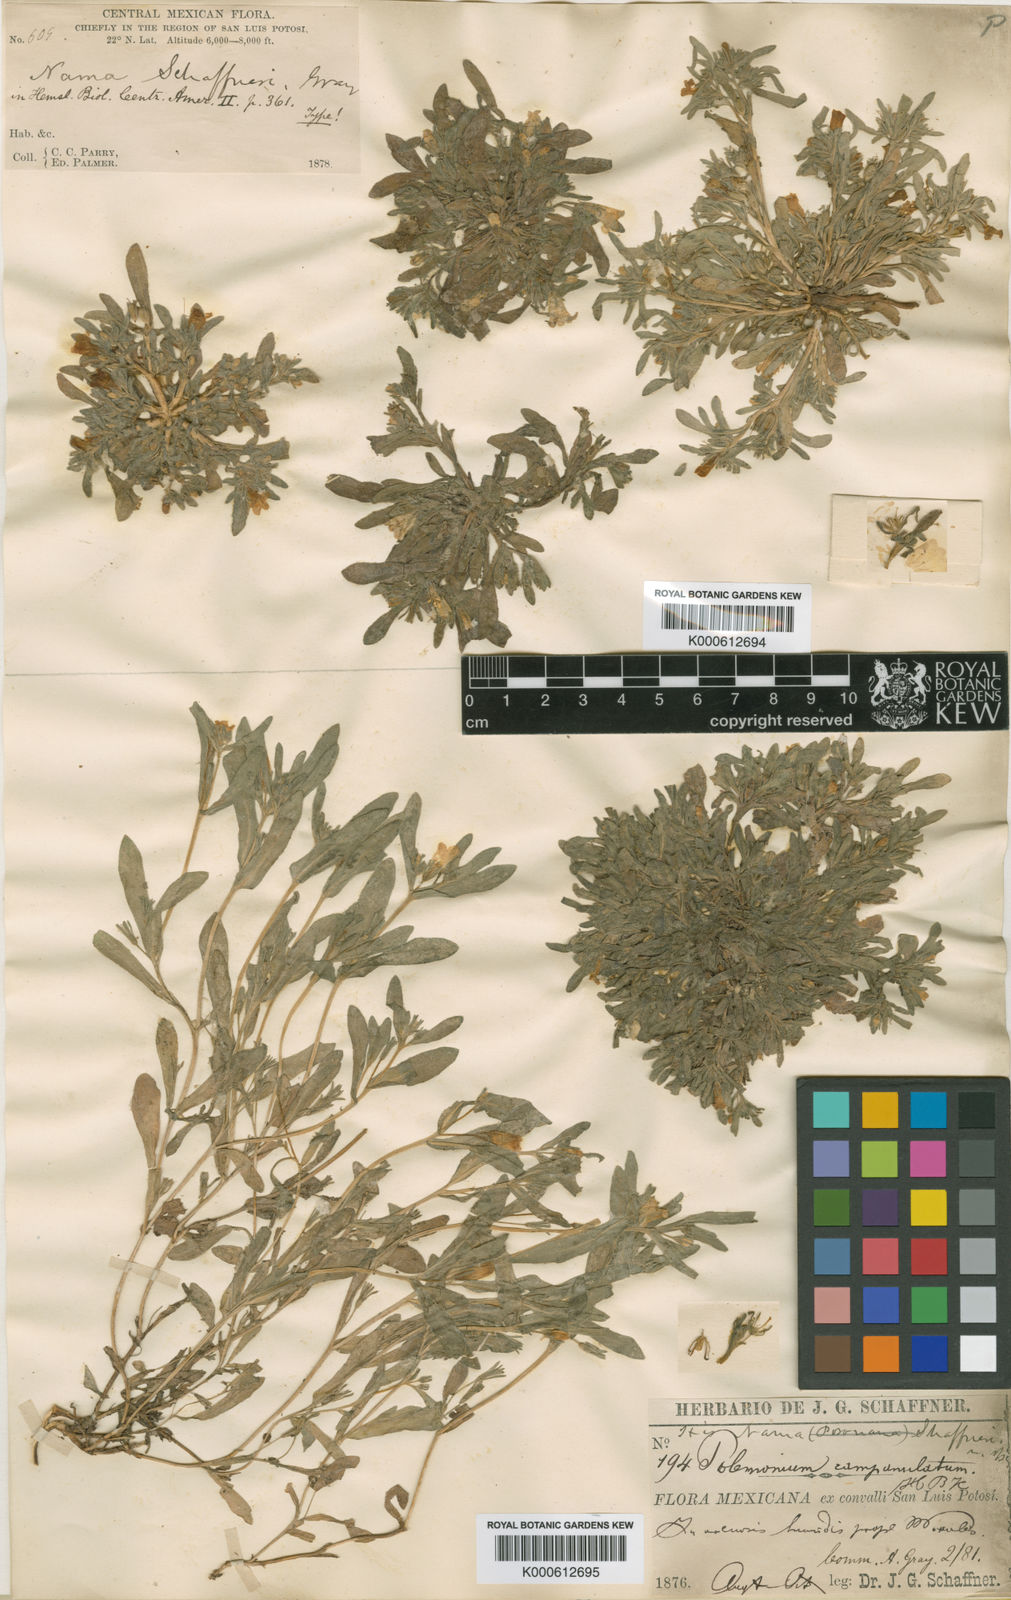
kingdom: Plantae
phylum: Tracheophyta
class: Magnoliopsida
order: Boraginales
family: Namaceae
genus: Nama
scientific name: Nama
